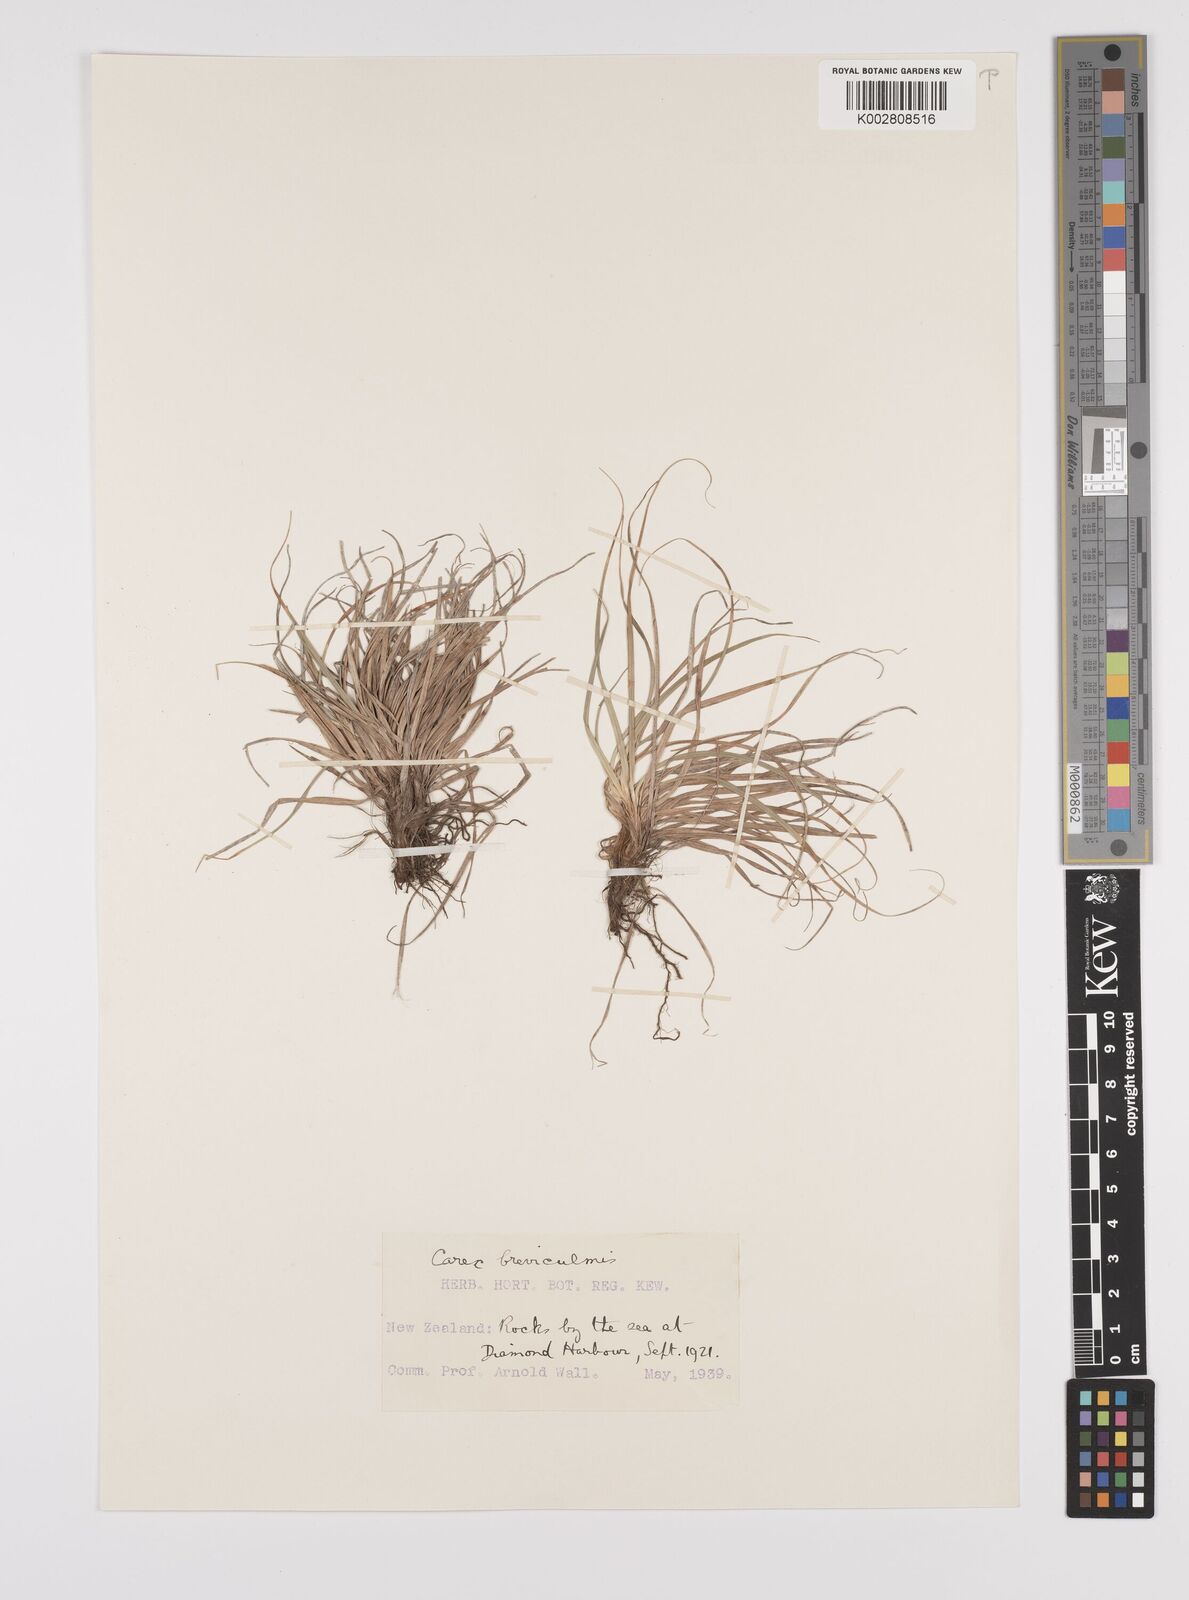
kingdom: Plantae
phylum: Tracheophyta
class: Liliopsida
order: Poales
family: Cyperaceae
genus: Carex
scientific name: Carex breviculmis
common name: Asian shortstem sedge
